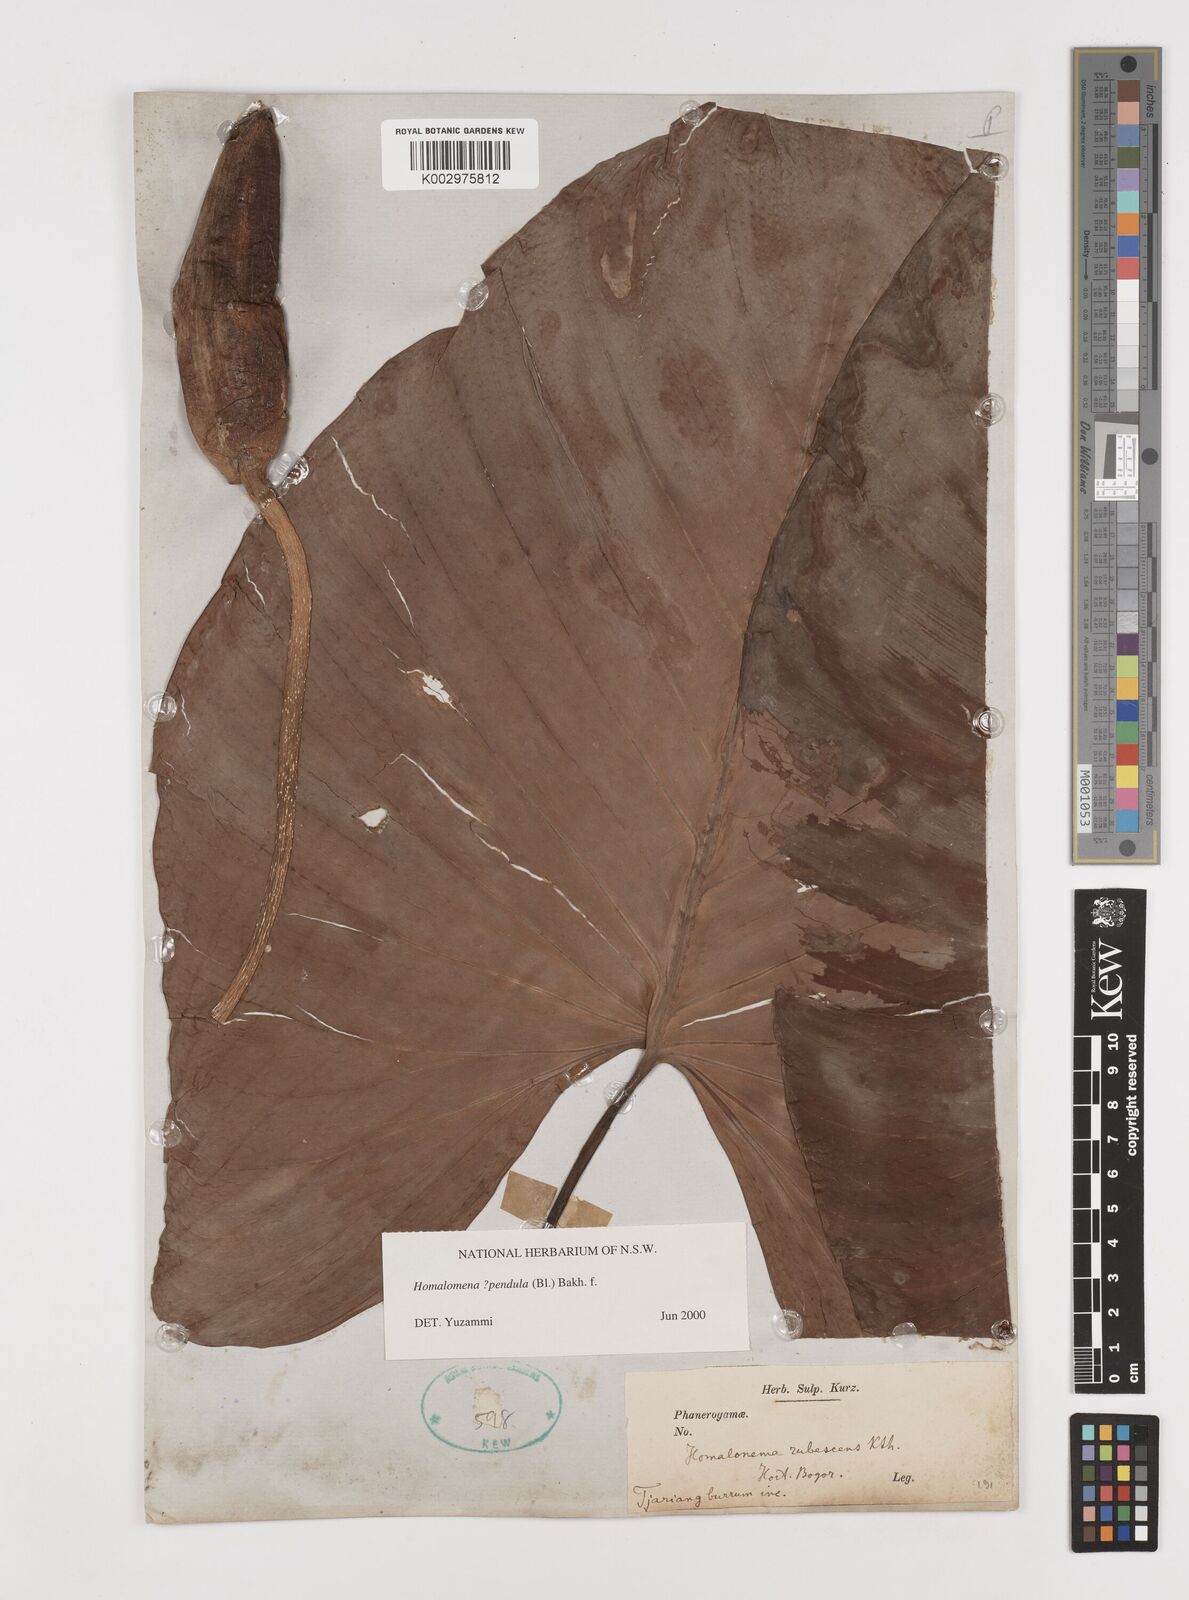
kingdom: Plantae
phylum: Tracheophyta
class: Liliopsida
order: Alismatales
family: Araceae
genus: Homalomena
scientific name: Homalomena pendula
